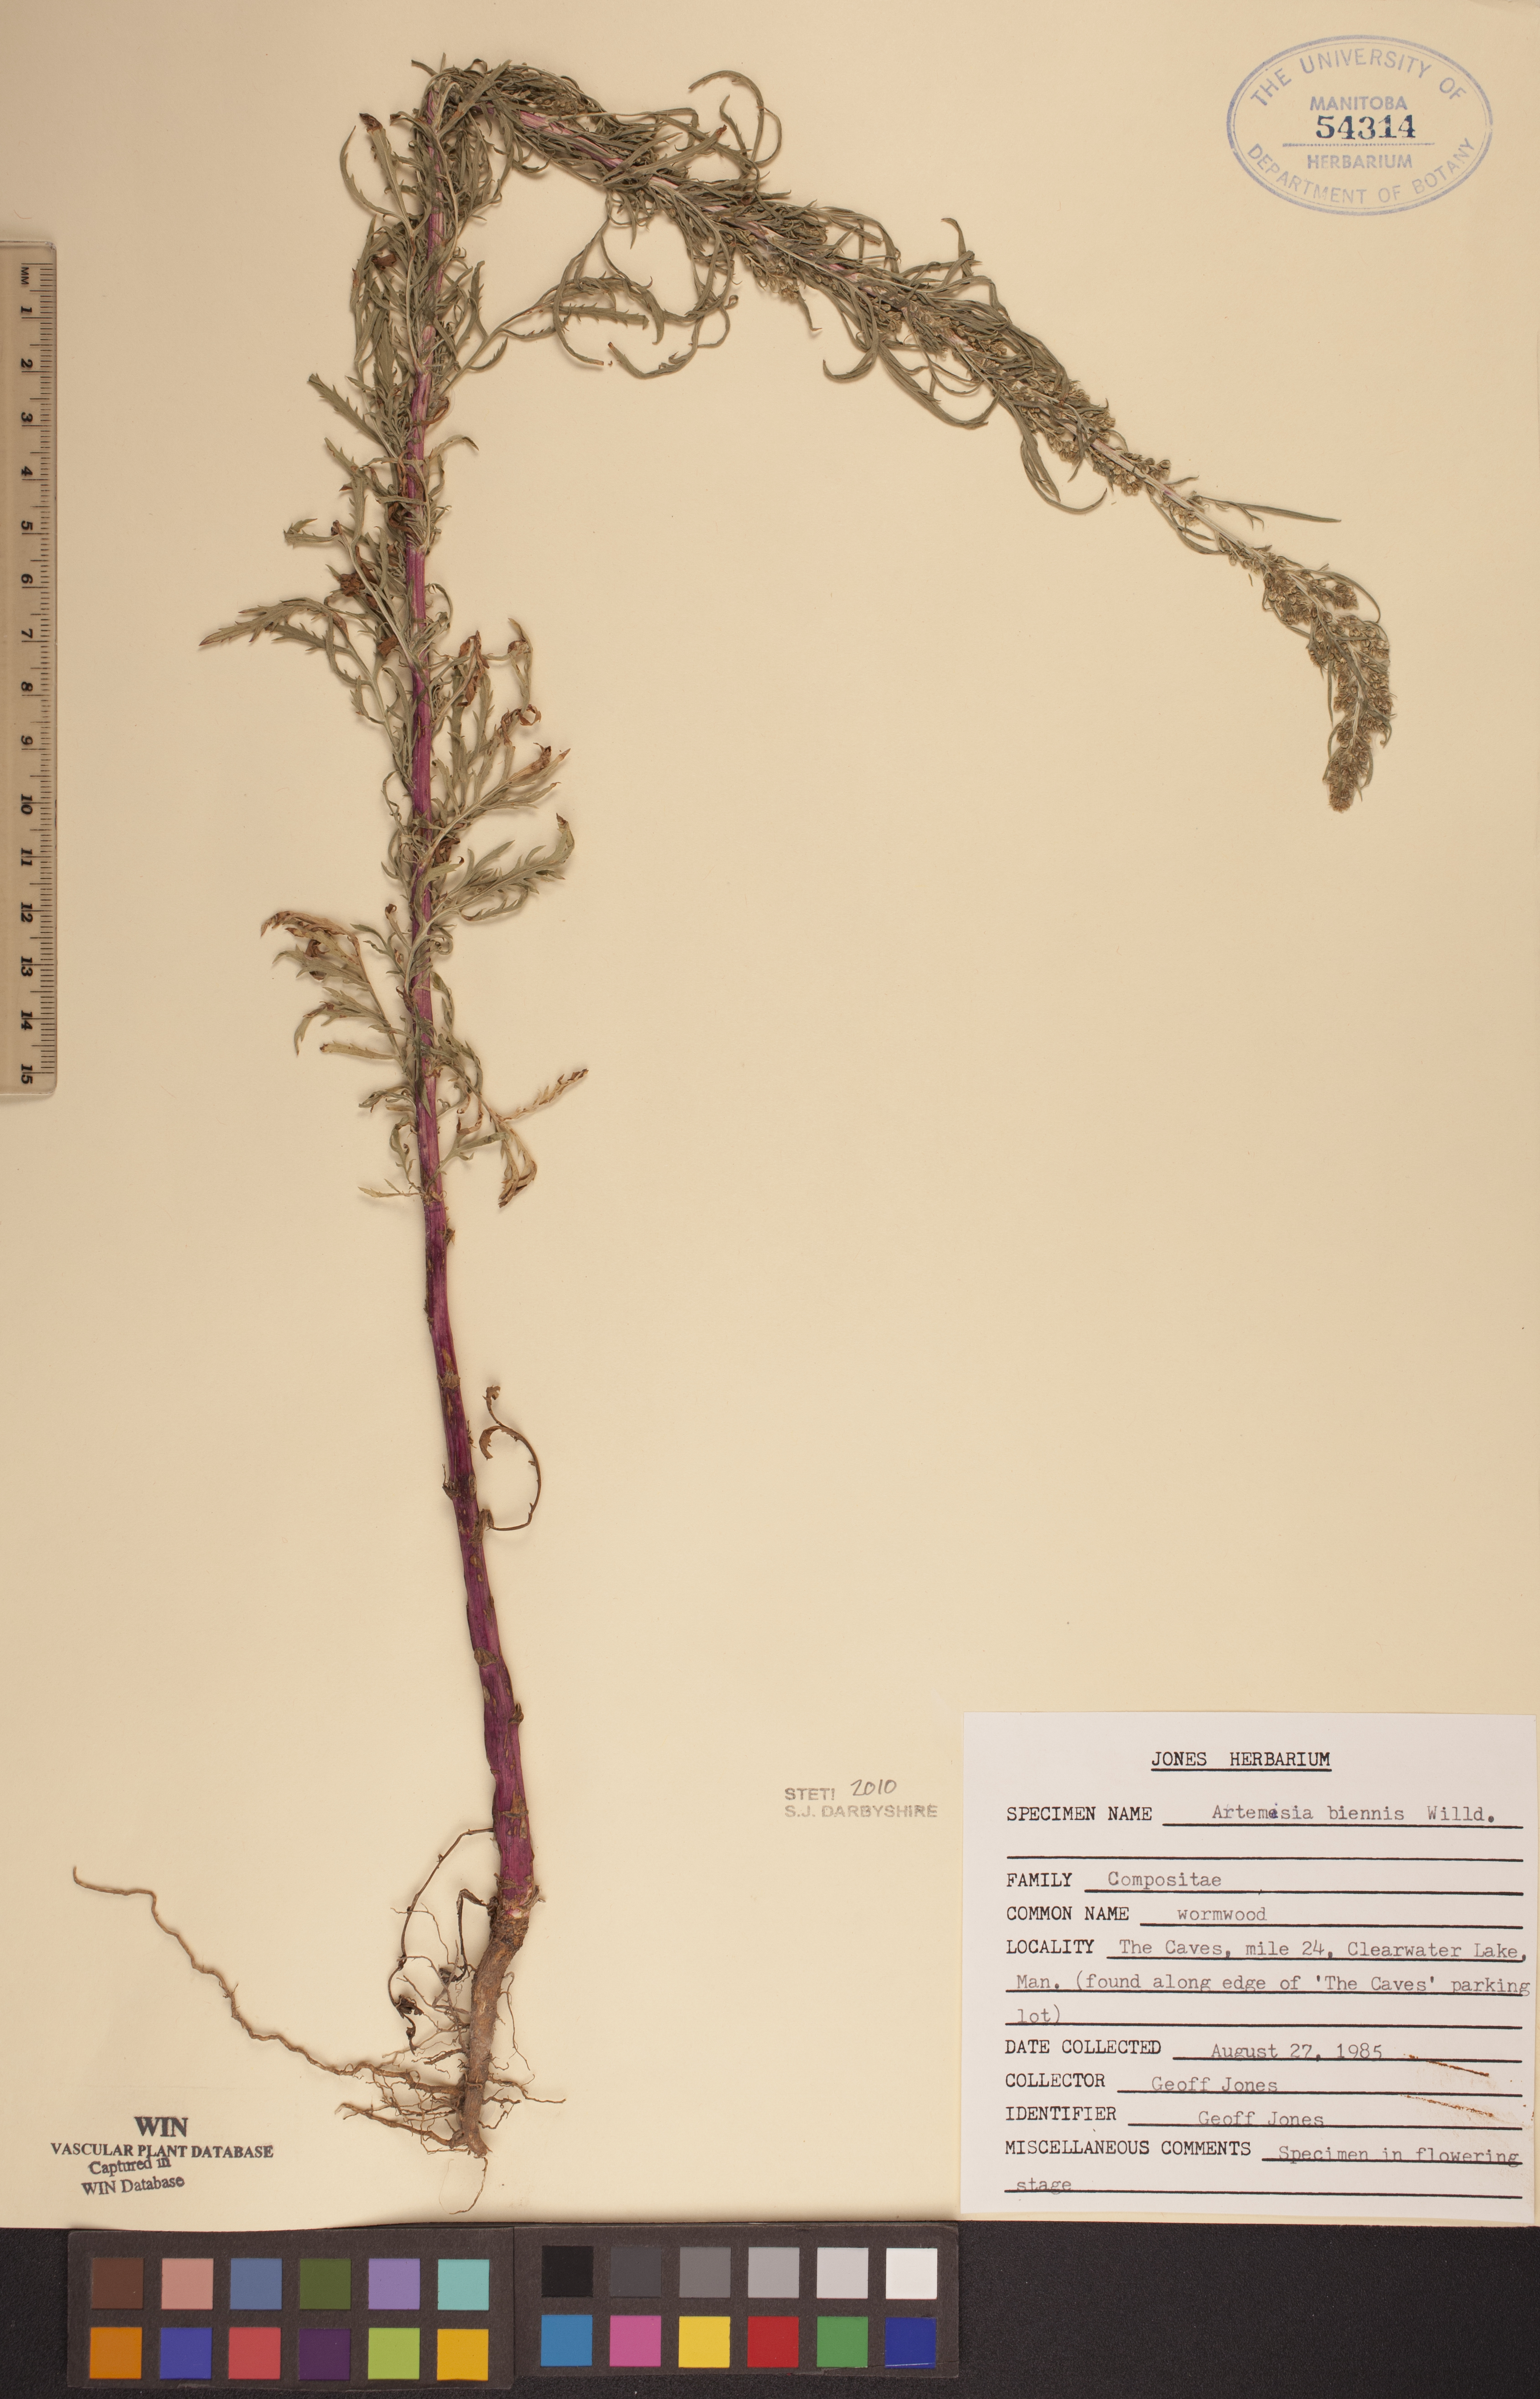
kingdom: Plantae
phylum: Tracheophyta
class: Magnoliopsida
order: Asterales
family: Asteraceae
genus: Artemisia
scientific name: Artemisia biennis
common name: Biennial wormwood
